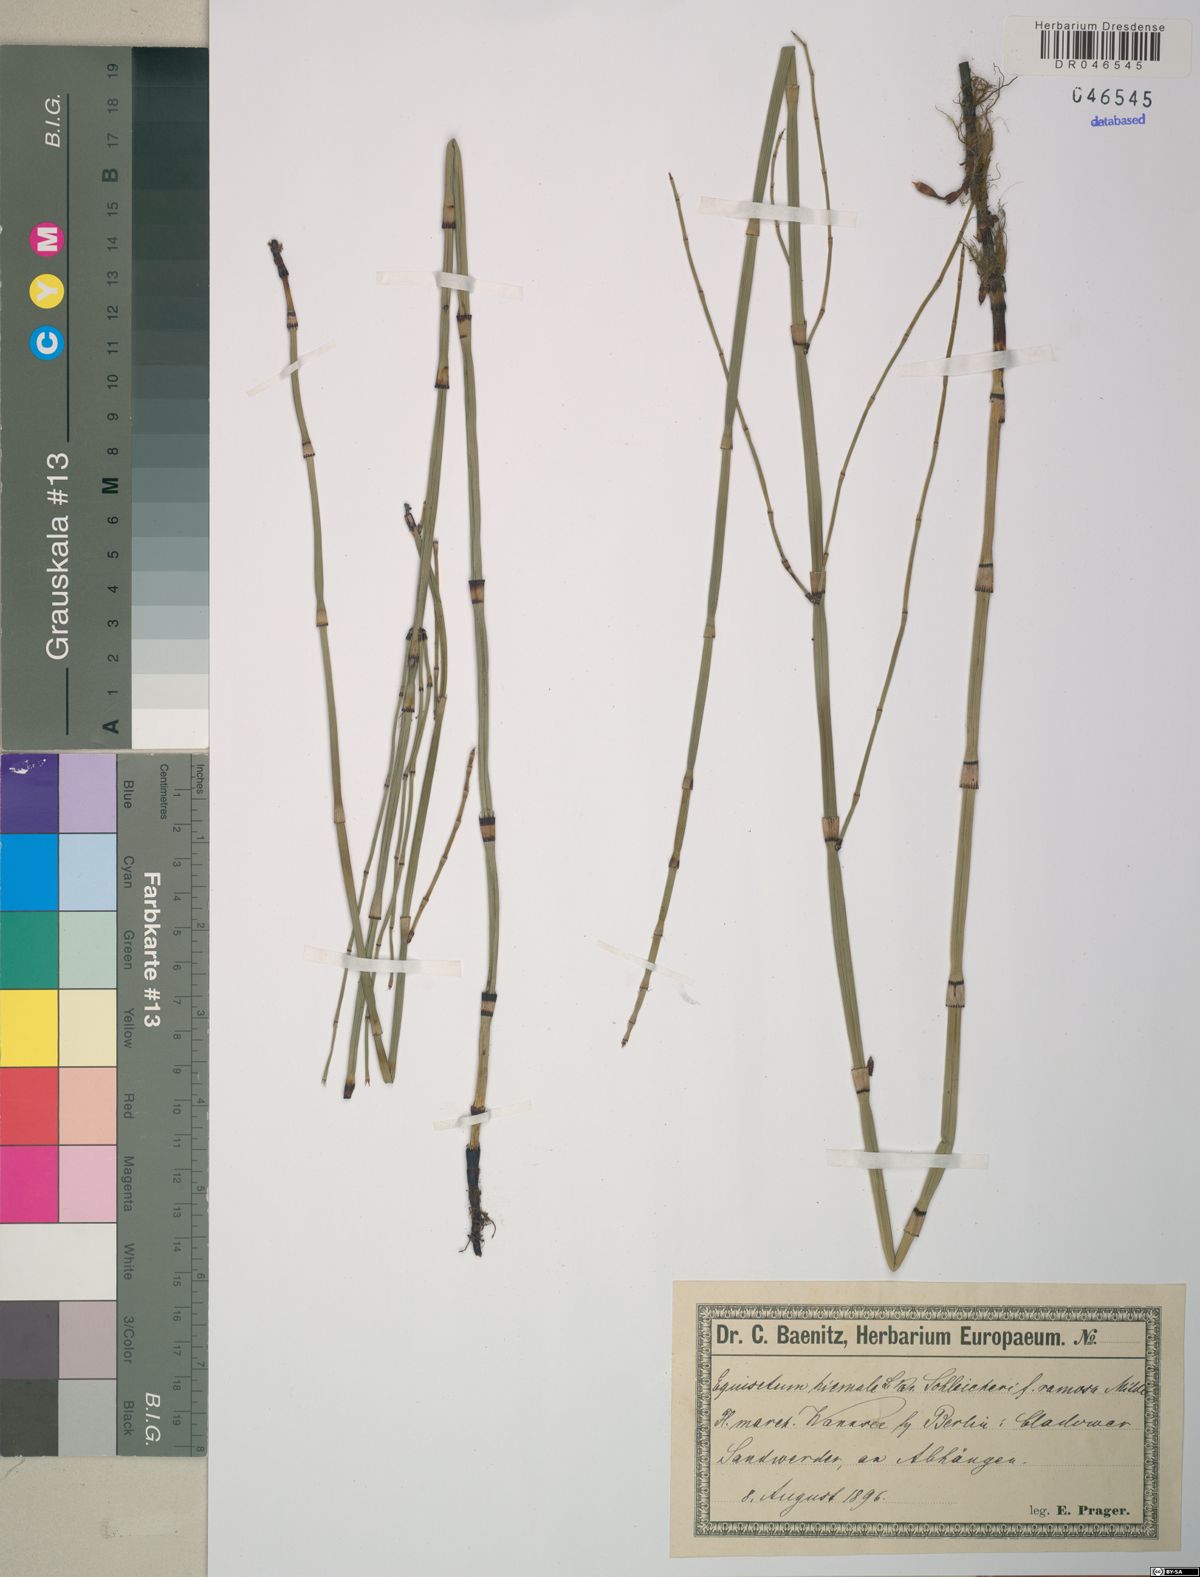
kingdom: Plantae
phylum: Tracheophyta
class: Polypodiopsida
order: Equisetales
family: Equisetaceae
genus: Equisetum
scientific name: Equisetum moorei
